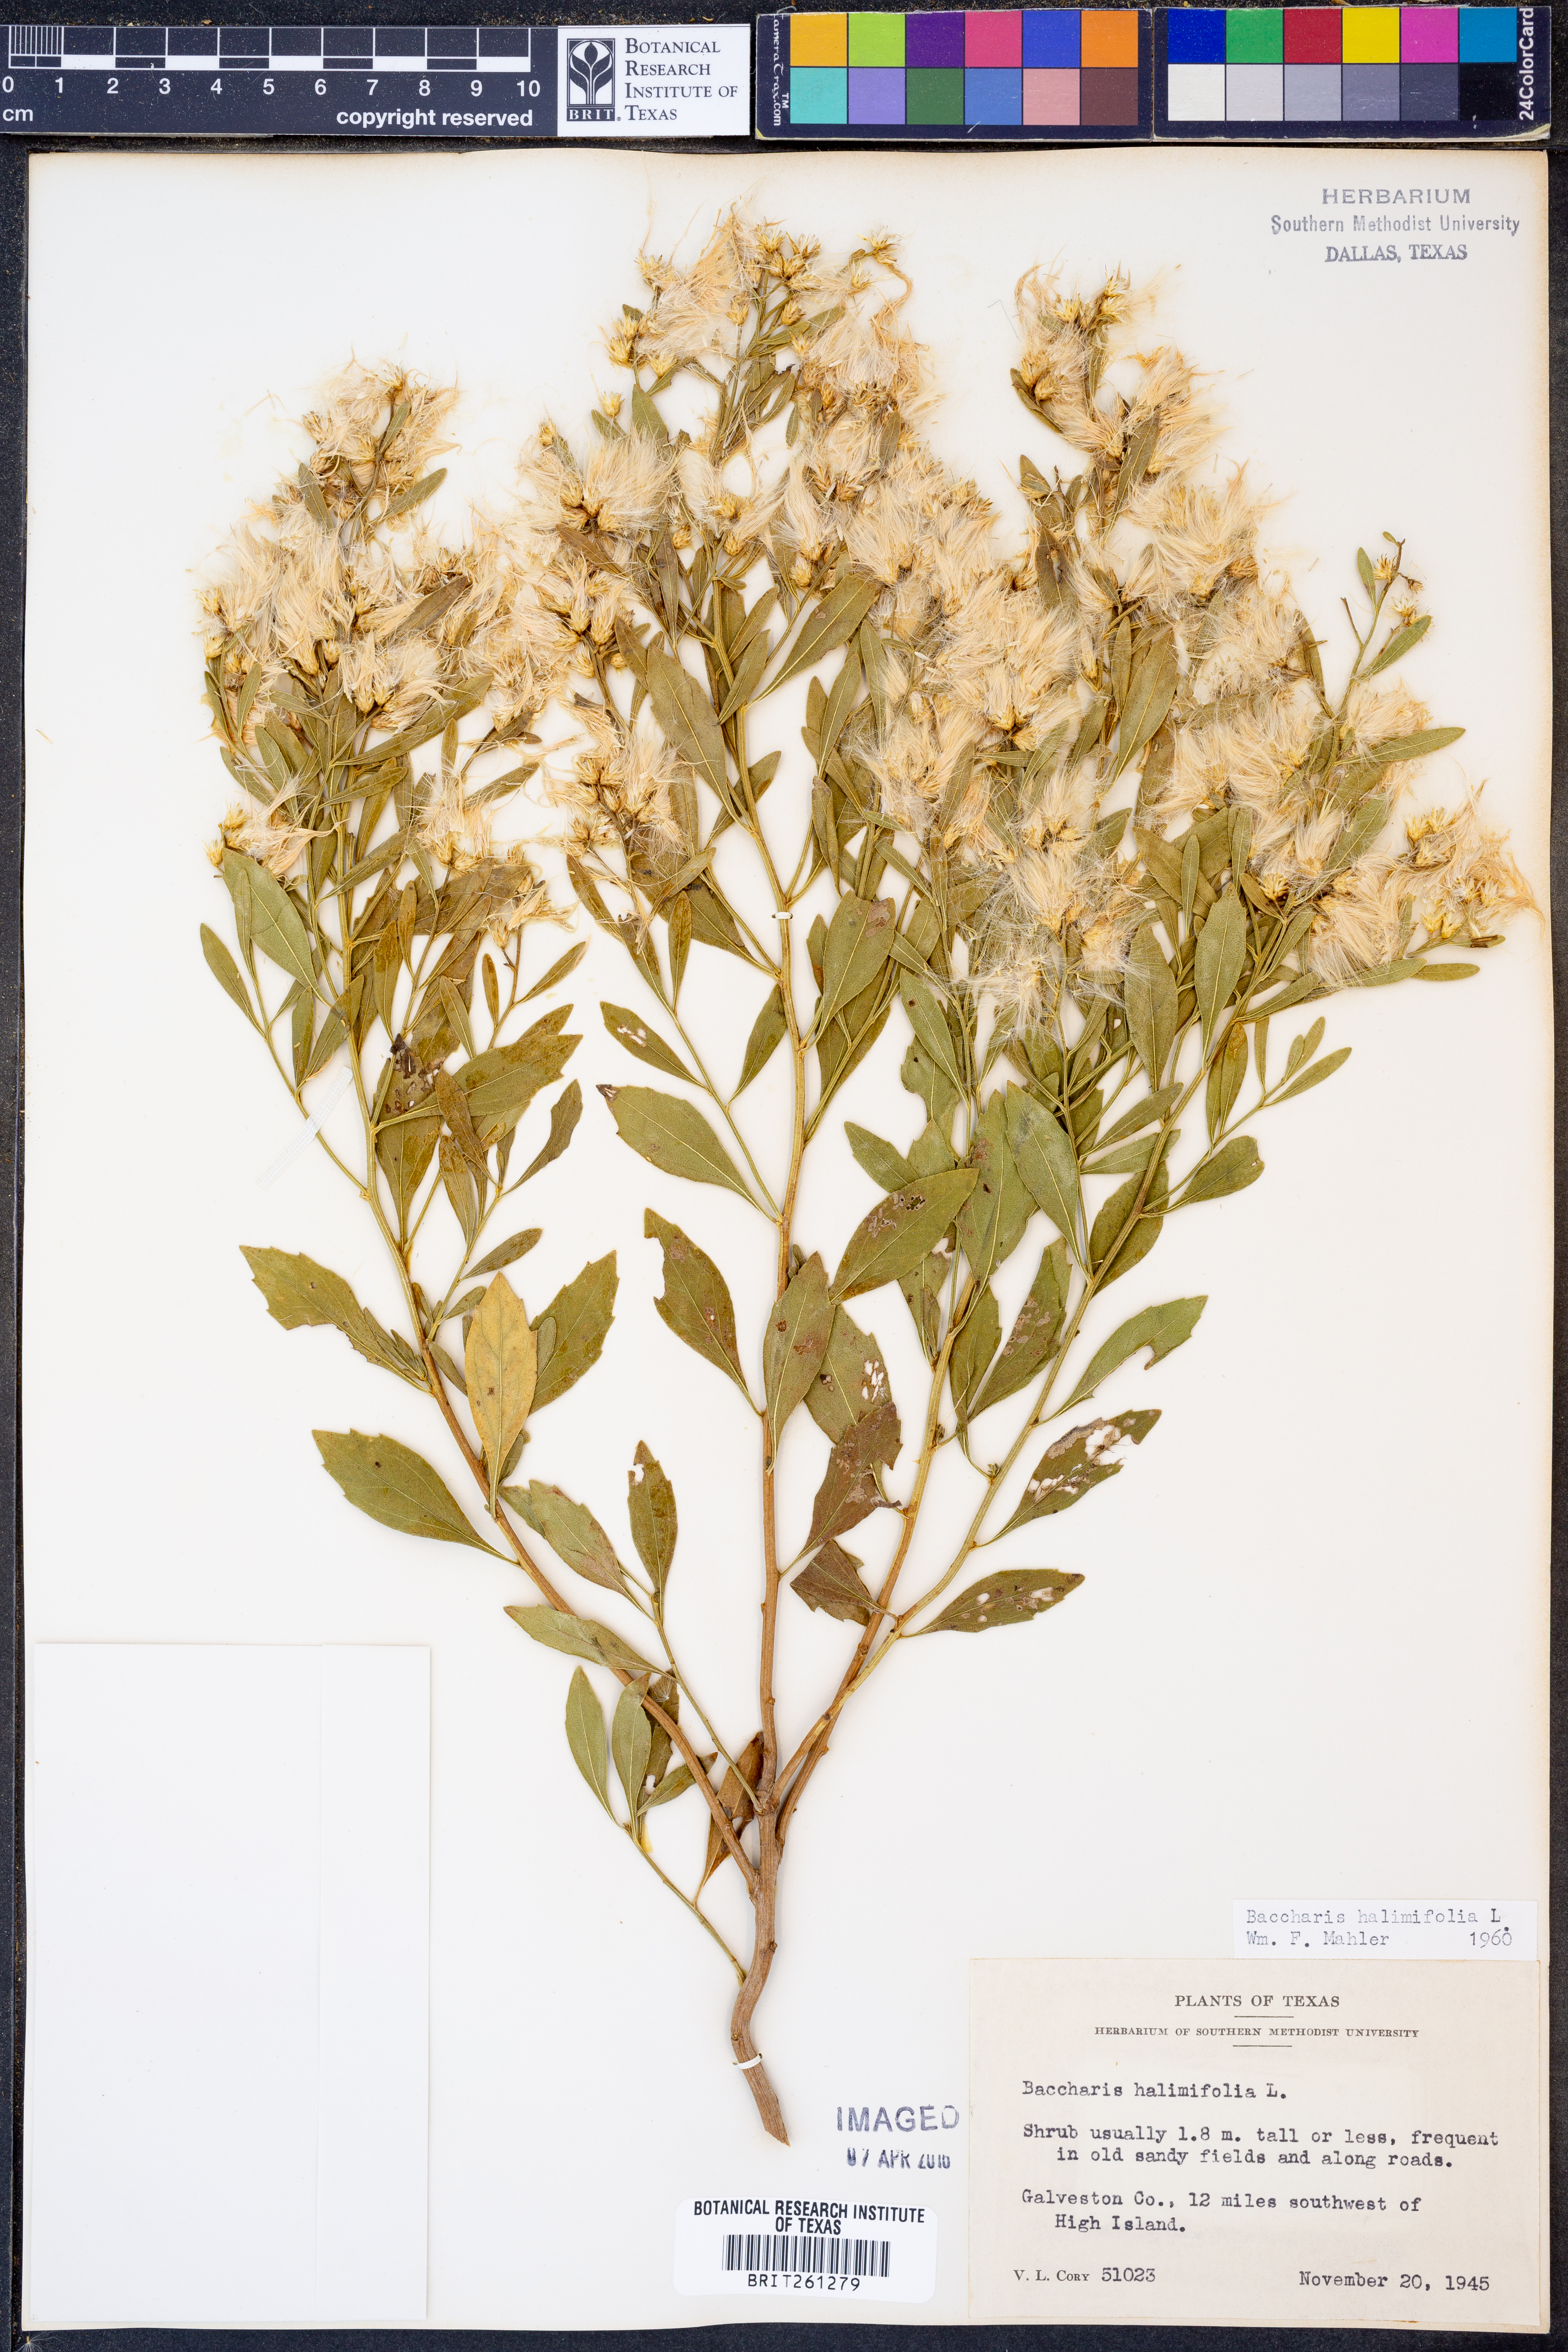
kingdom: Plantae
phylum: Tracheophyta
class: Magnoliopsida
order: Asterales
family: Asteraceae
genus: Nidorella
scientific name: Nidorella ivifolia
